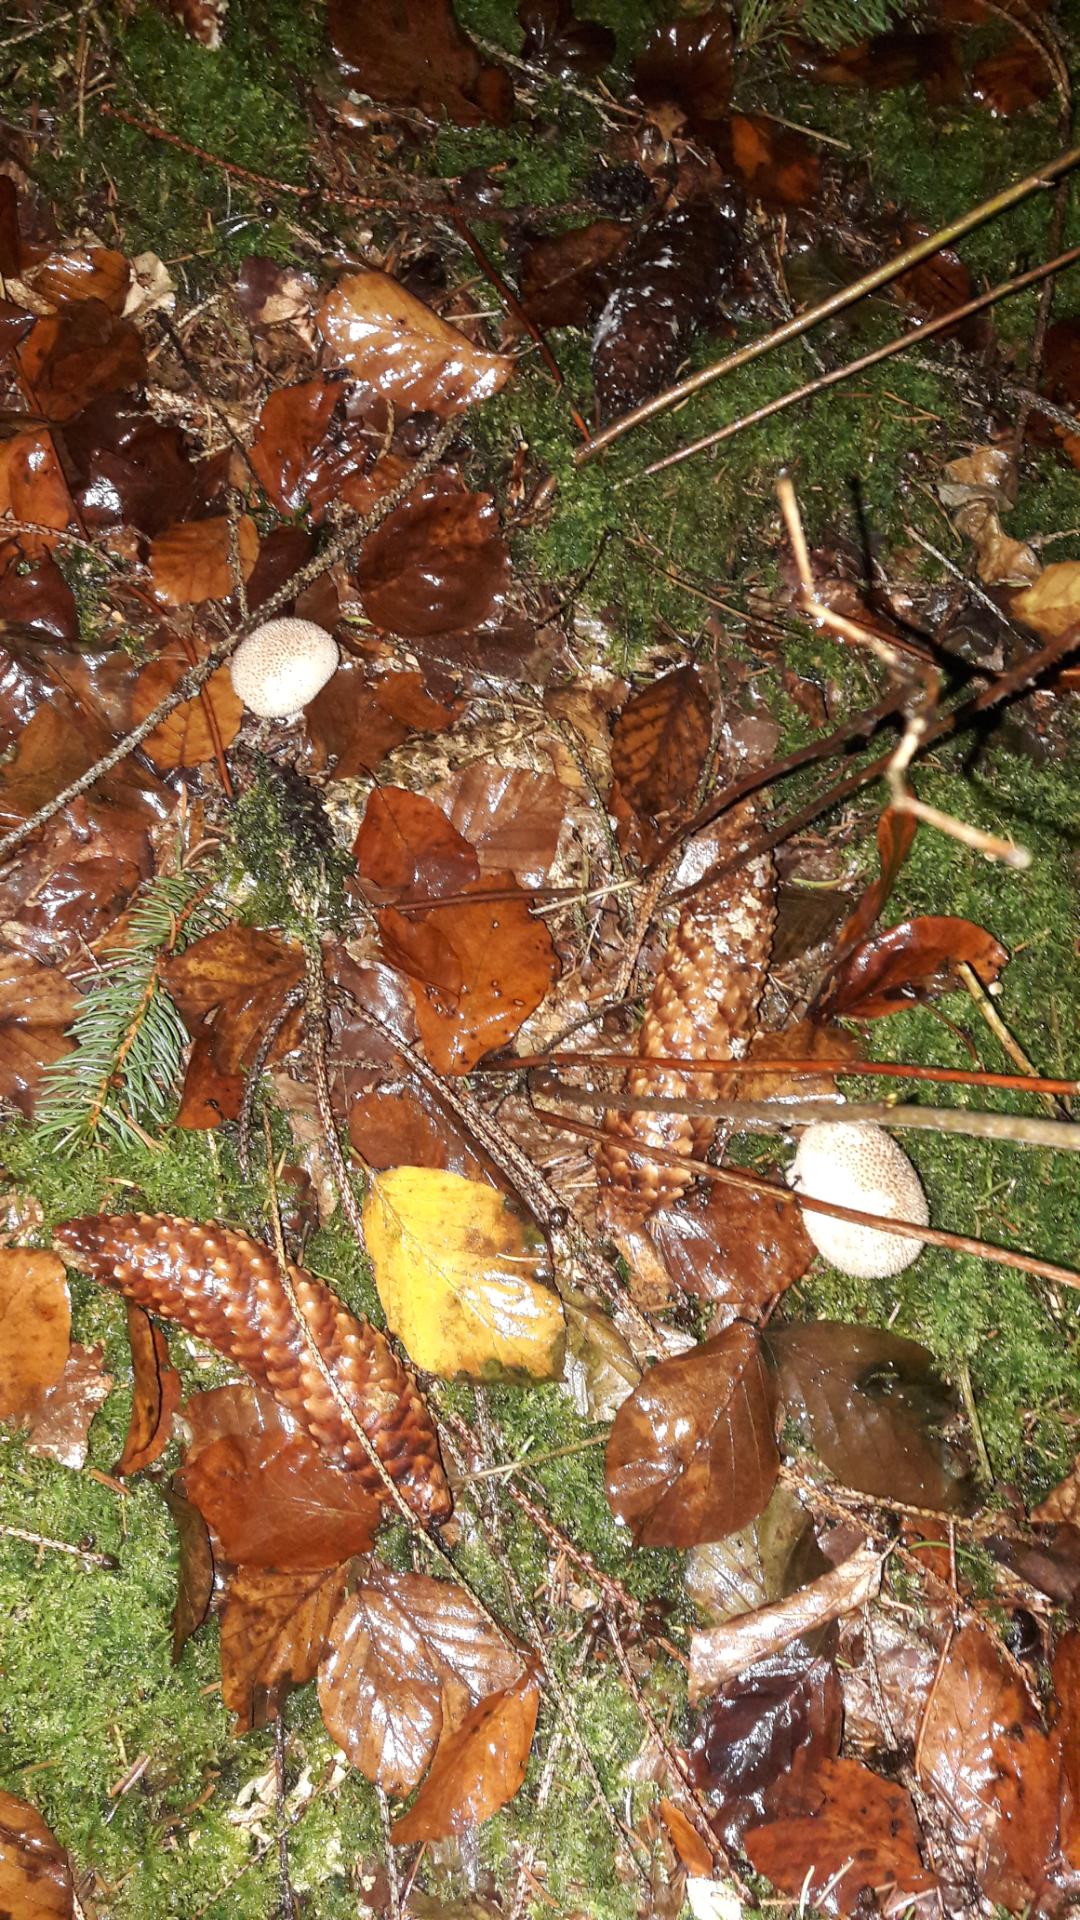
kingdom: Fungi
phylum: Basidiomycota
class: Agaricomycetes
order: Agaricales
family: Lycoperdaceae
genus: Lycoperdon
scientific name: Lycoperdon nigrescens
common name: sortagtig støvbold
